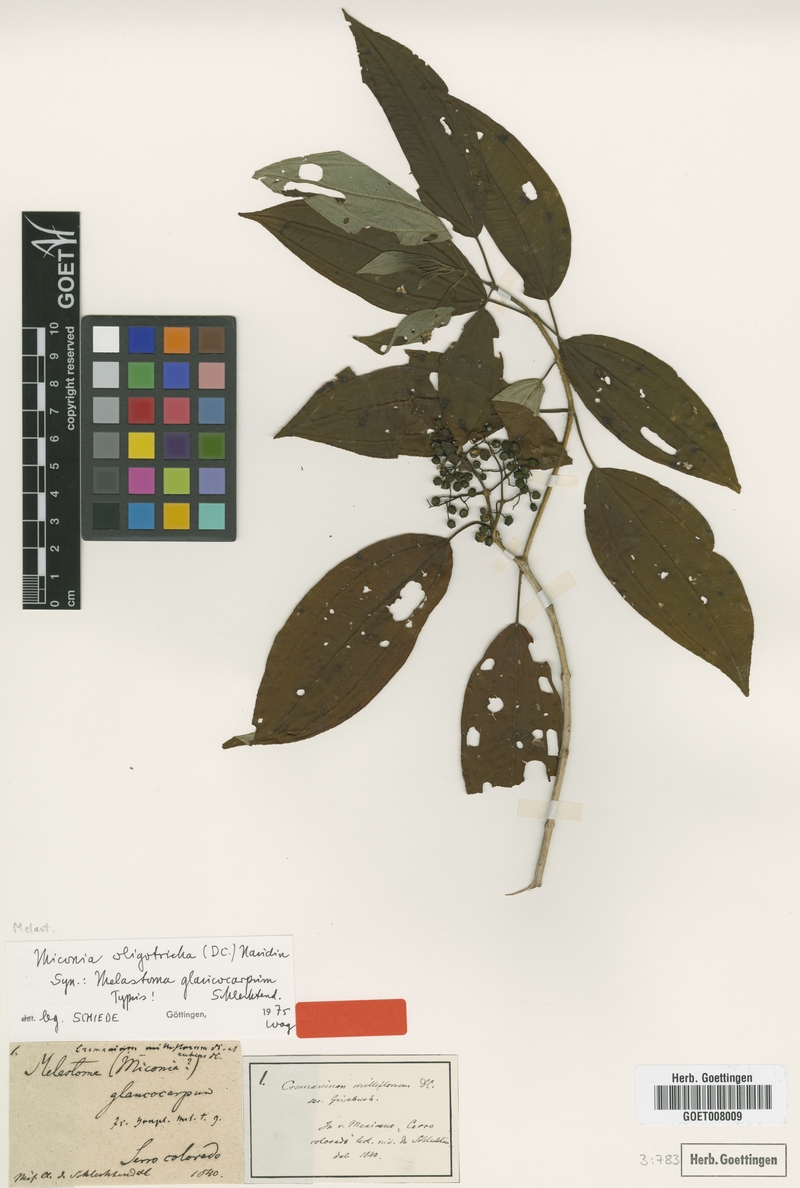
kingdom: Plantae
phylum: Tracheophyta
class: Magnoliopsida
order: Myrtales
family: Melastomataceae
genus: Miconia
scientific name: Miconia oligotricha
